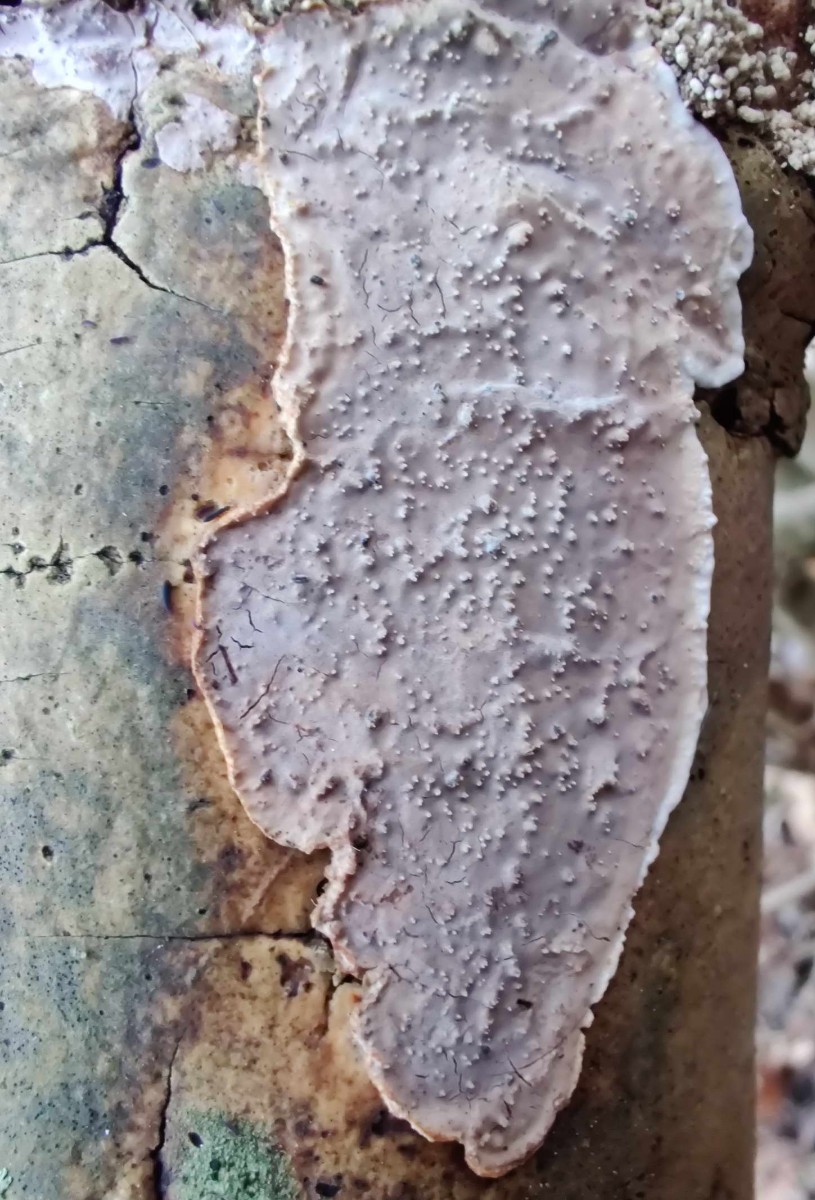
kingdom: Fungi
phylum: Basidiomycota
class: Agaricomycetes
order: Auriculariales
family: Auriculariaceae
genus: Heteroradulum
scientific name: Heteroradulum deglubens
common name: bævreskorpe
